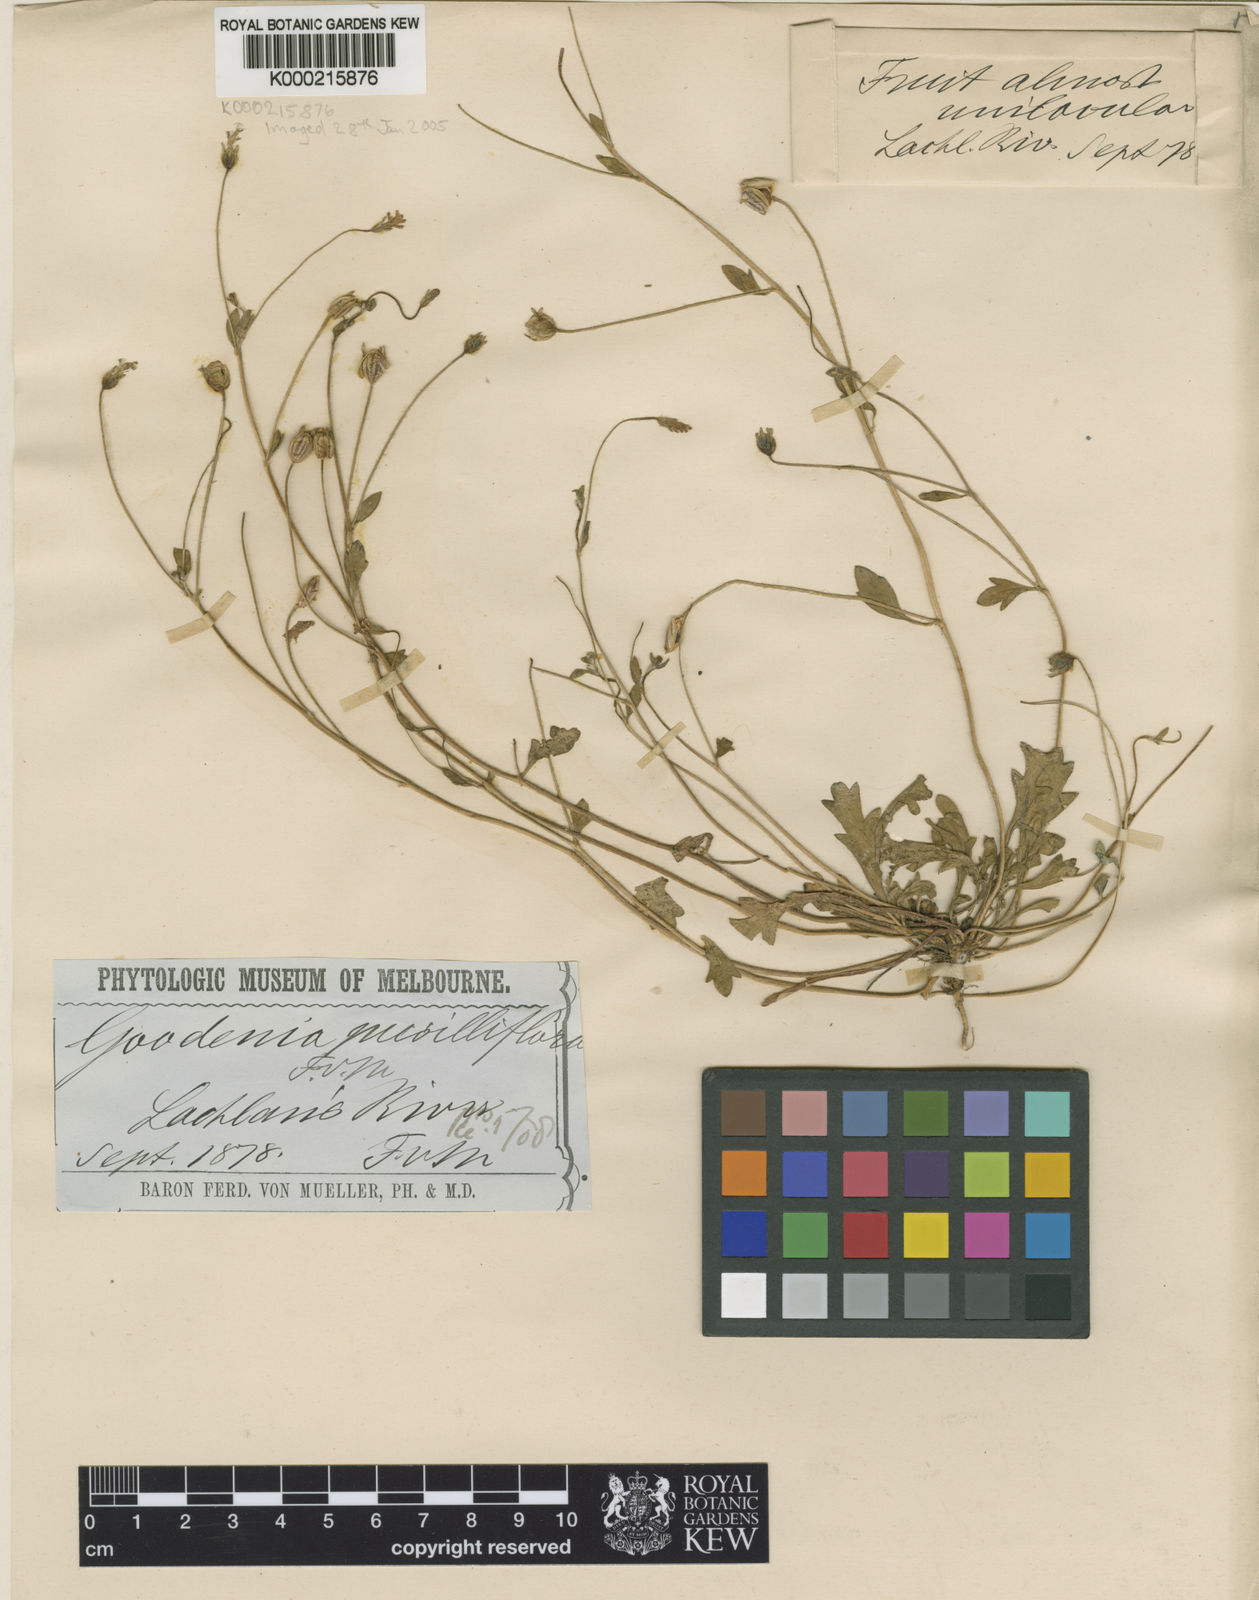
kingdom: Plantae
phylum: Tracheophyta
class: Magnoliopsida
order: Asterales
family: Goodeniaceae
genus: Goodenia
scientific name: Goodenia pusilliflora
